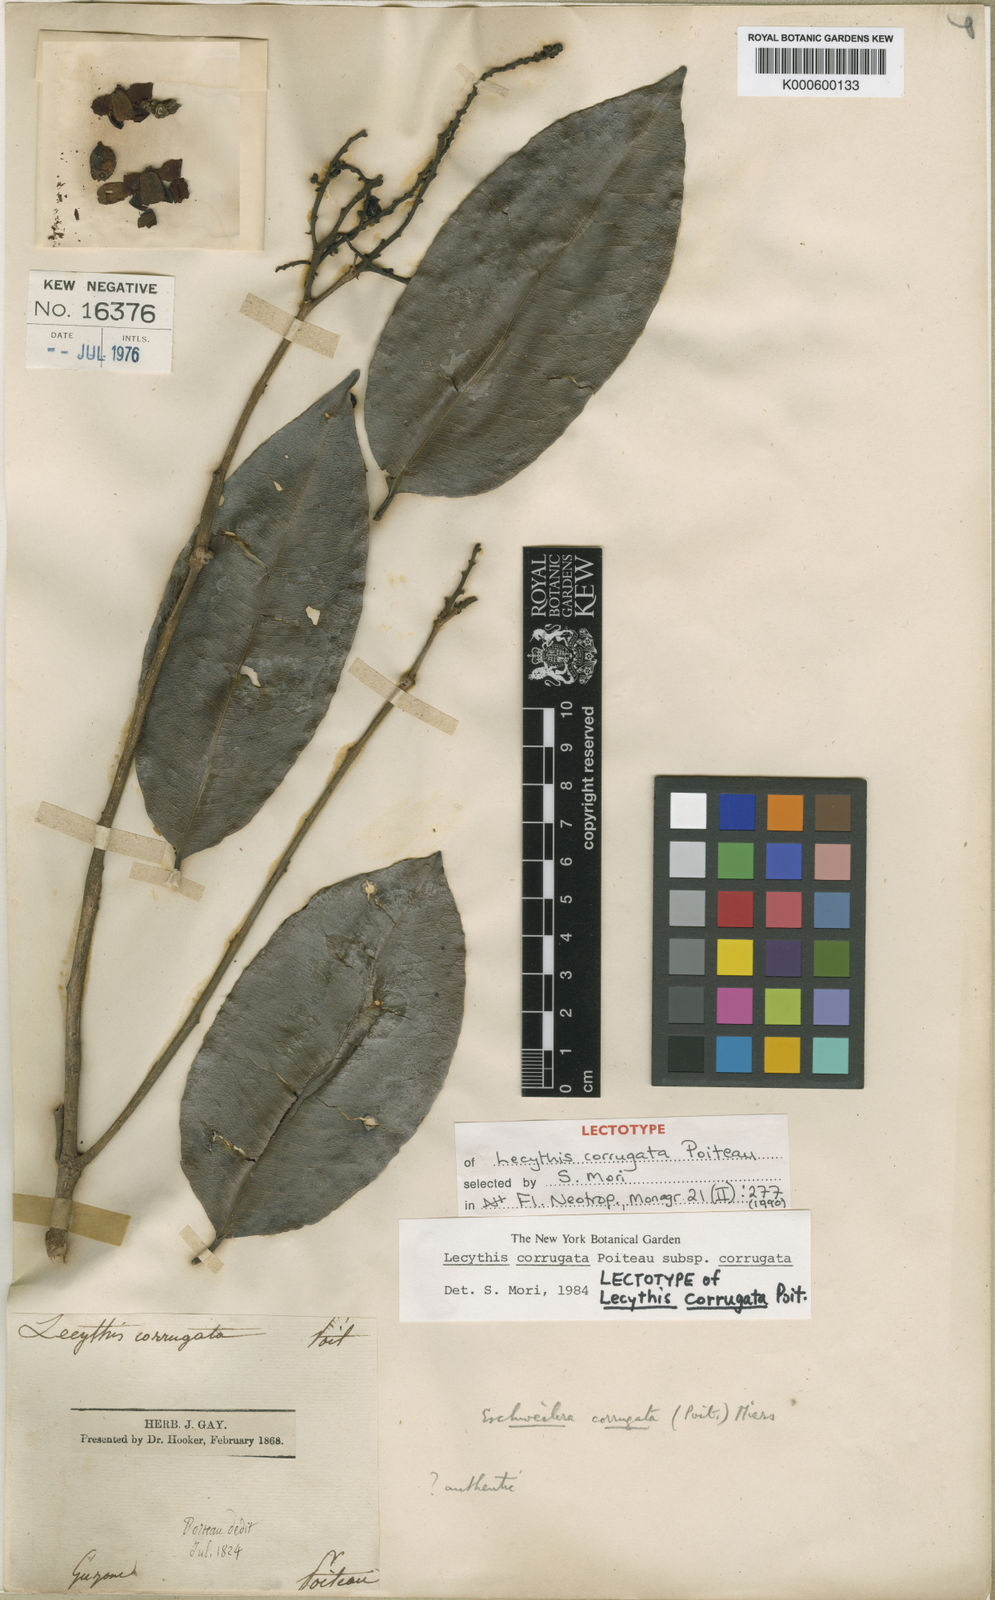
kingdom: Plantae
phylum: Tracheophyta
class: Magnoliopsida
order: Ericales
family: Lecythidaceae
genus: Lecythis
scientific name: Lecythis corrugata
